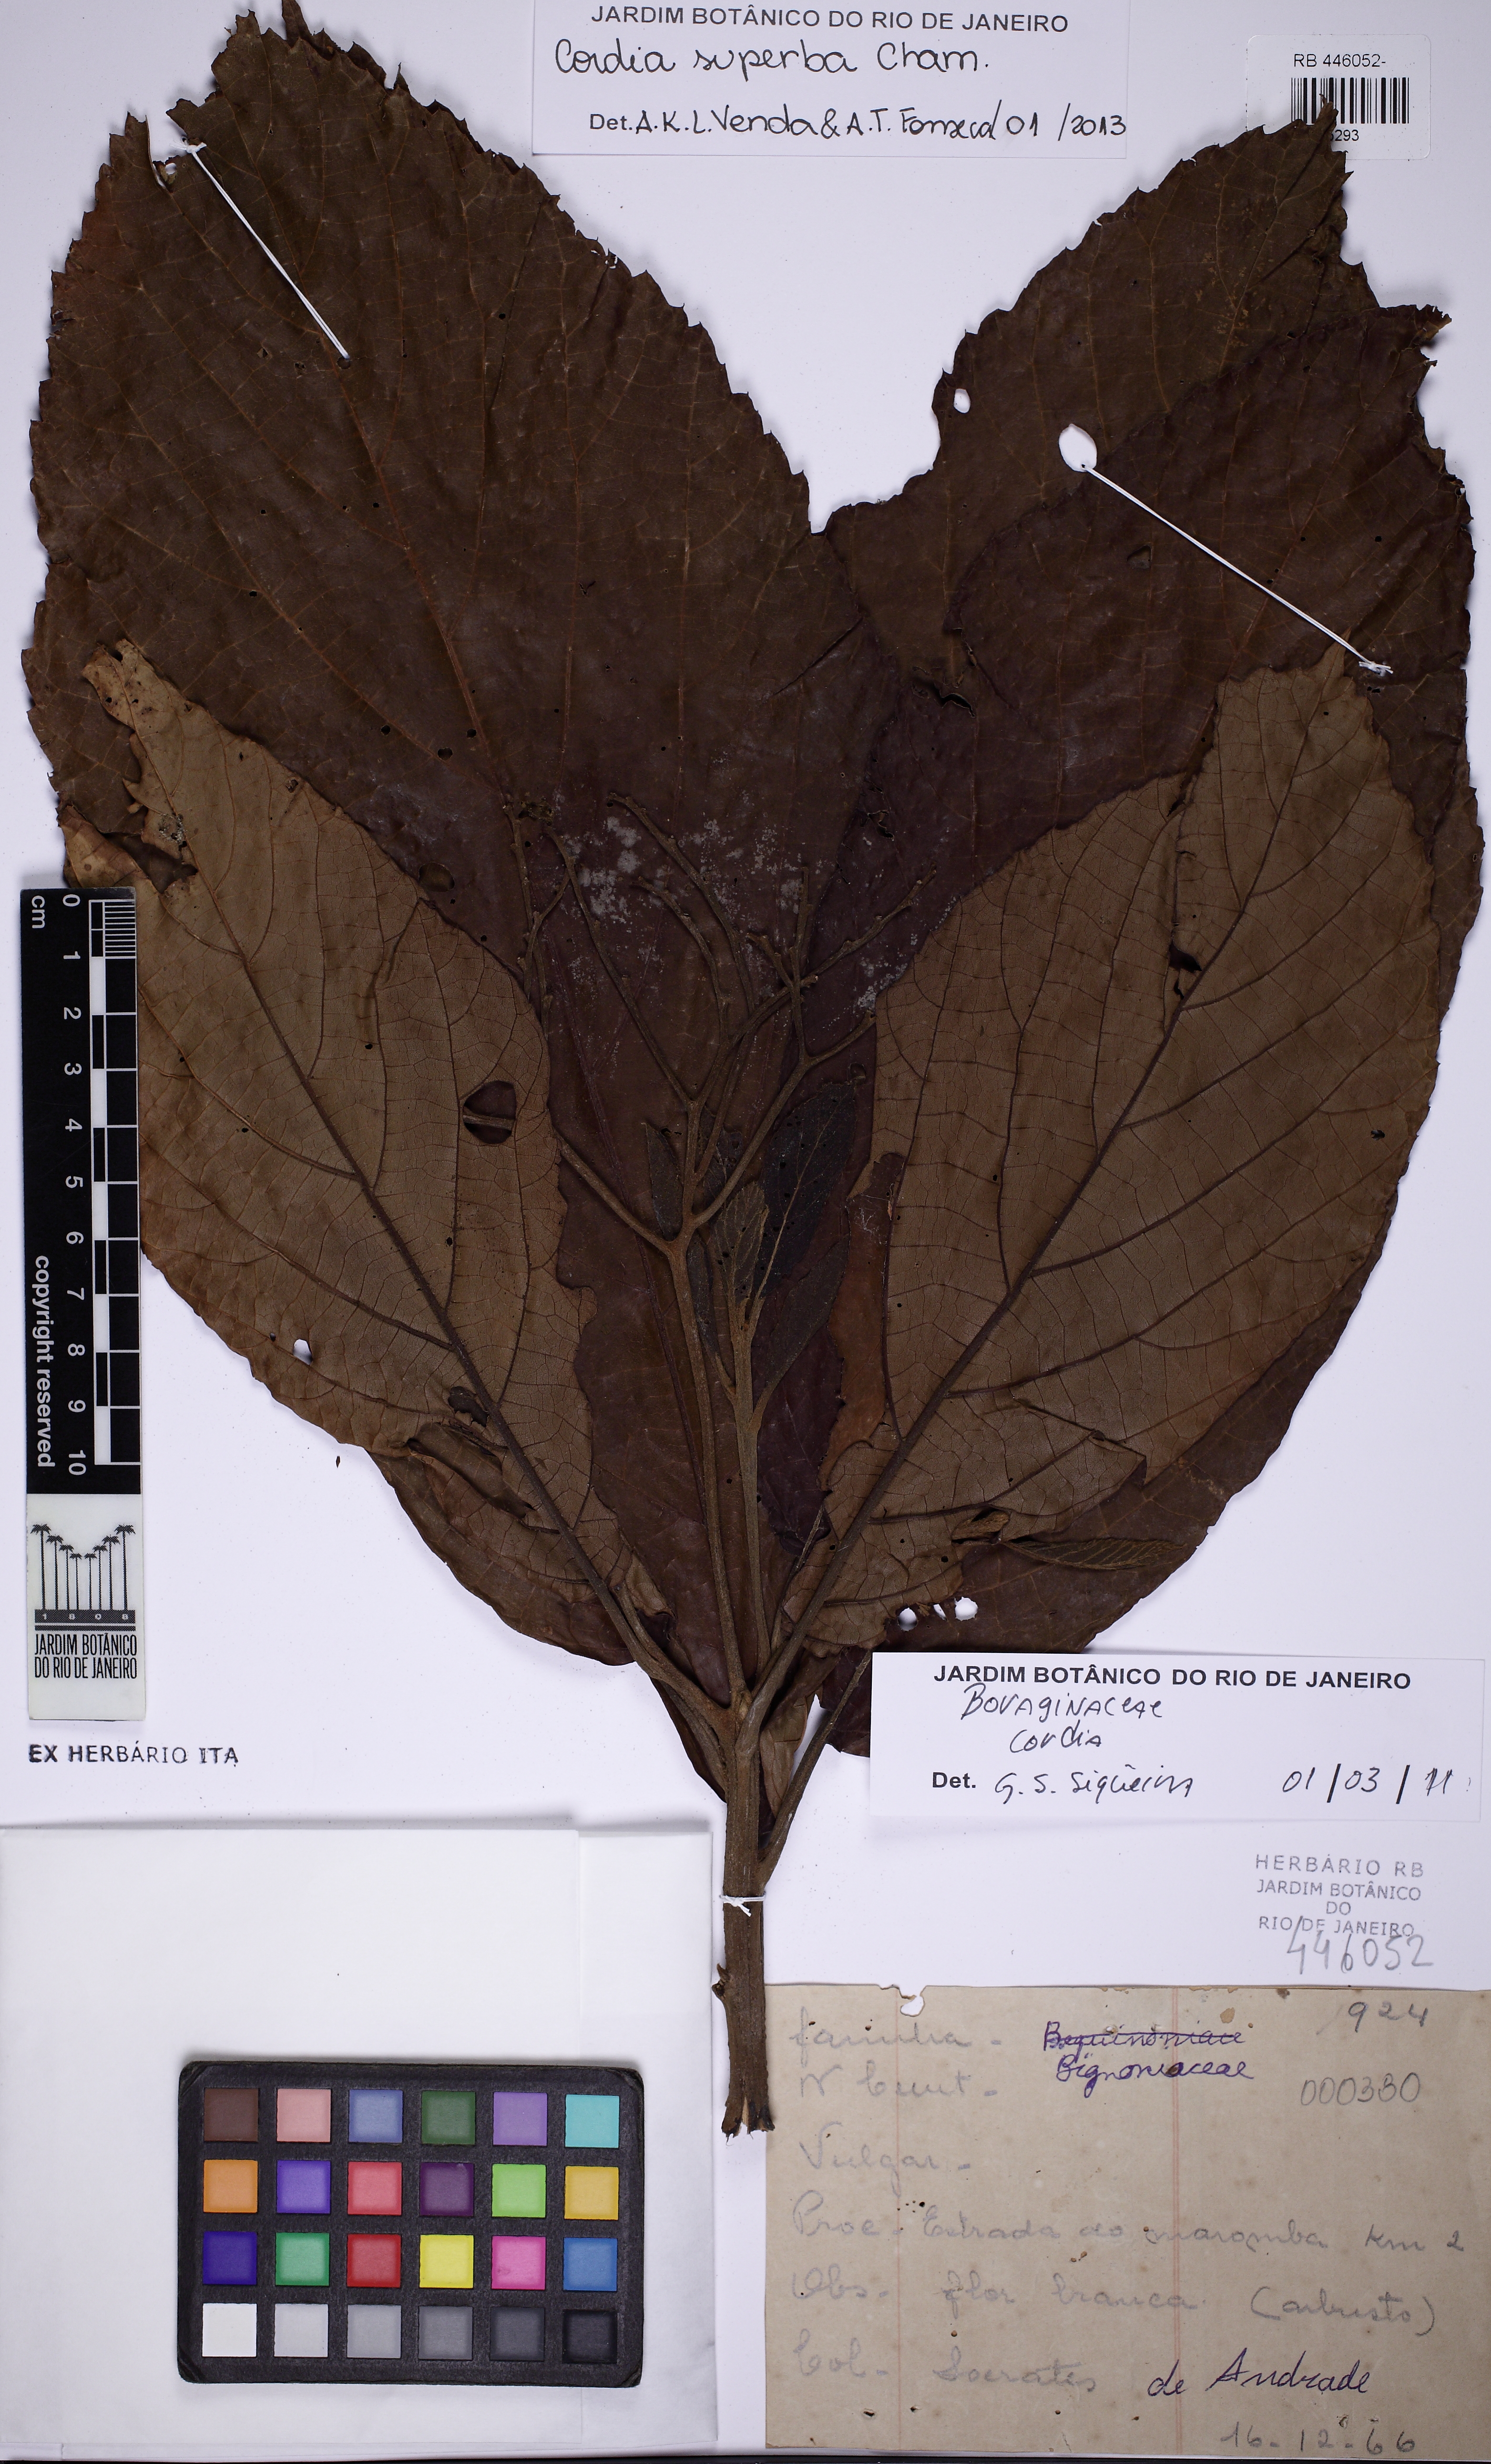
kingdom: Plantae
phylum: Tracheophyta
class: Magnoliopsida
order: Boraginales
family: Cordiaceae
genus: Cordia
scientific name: Cordia superba
